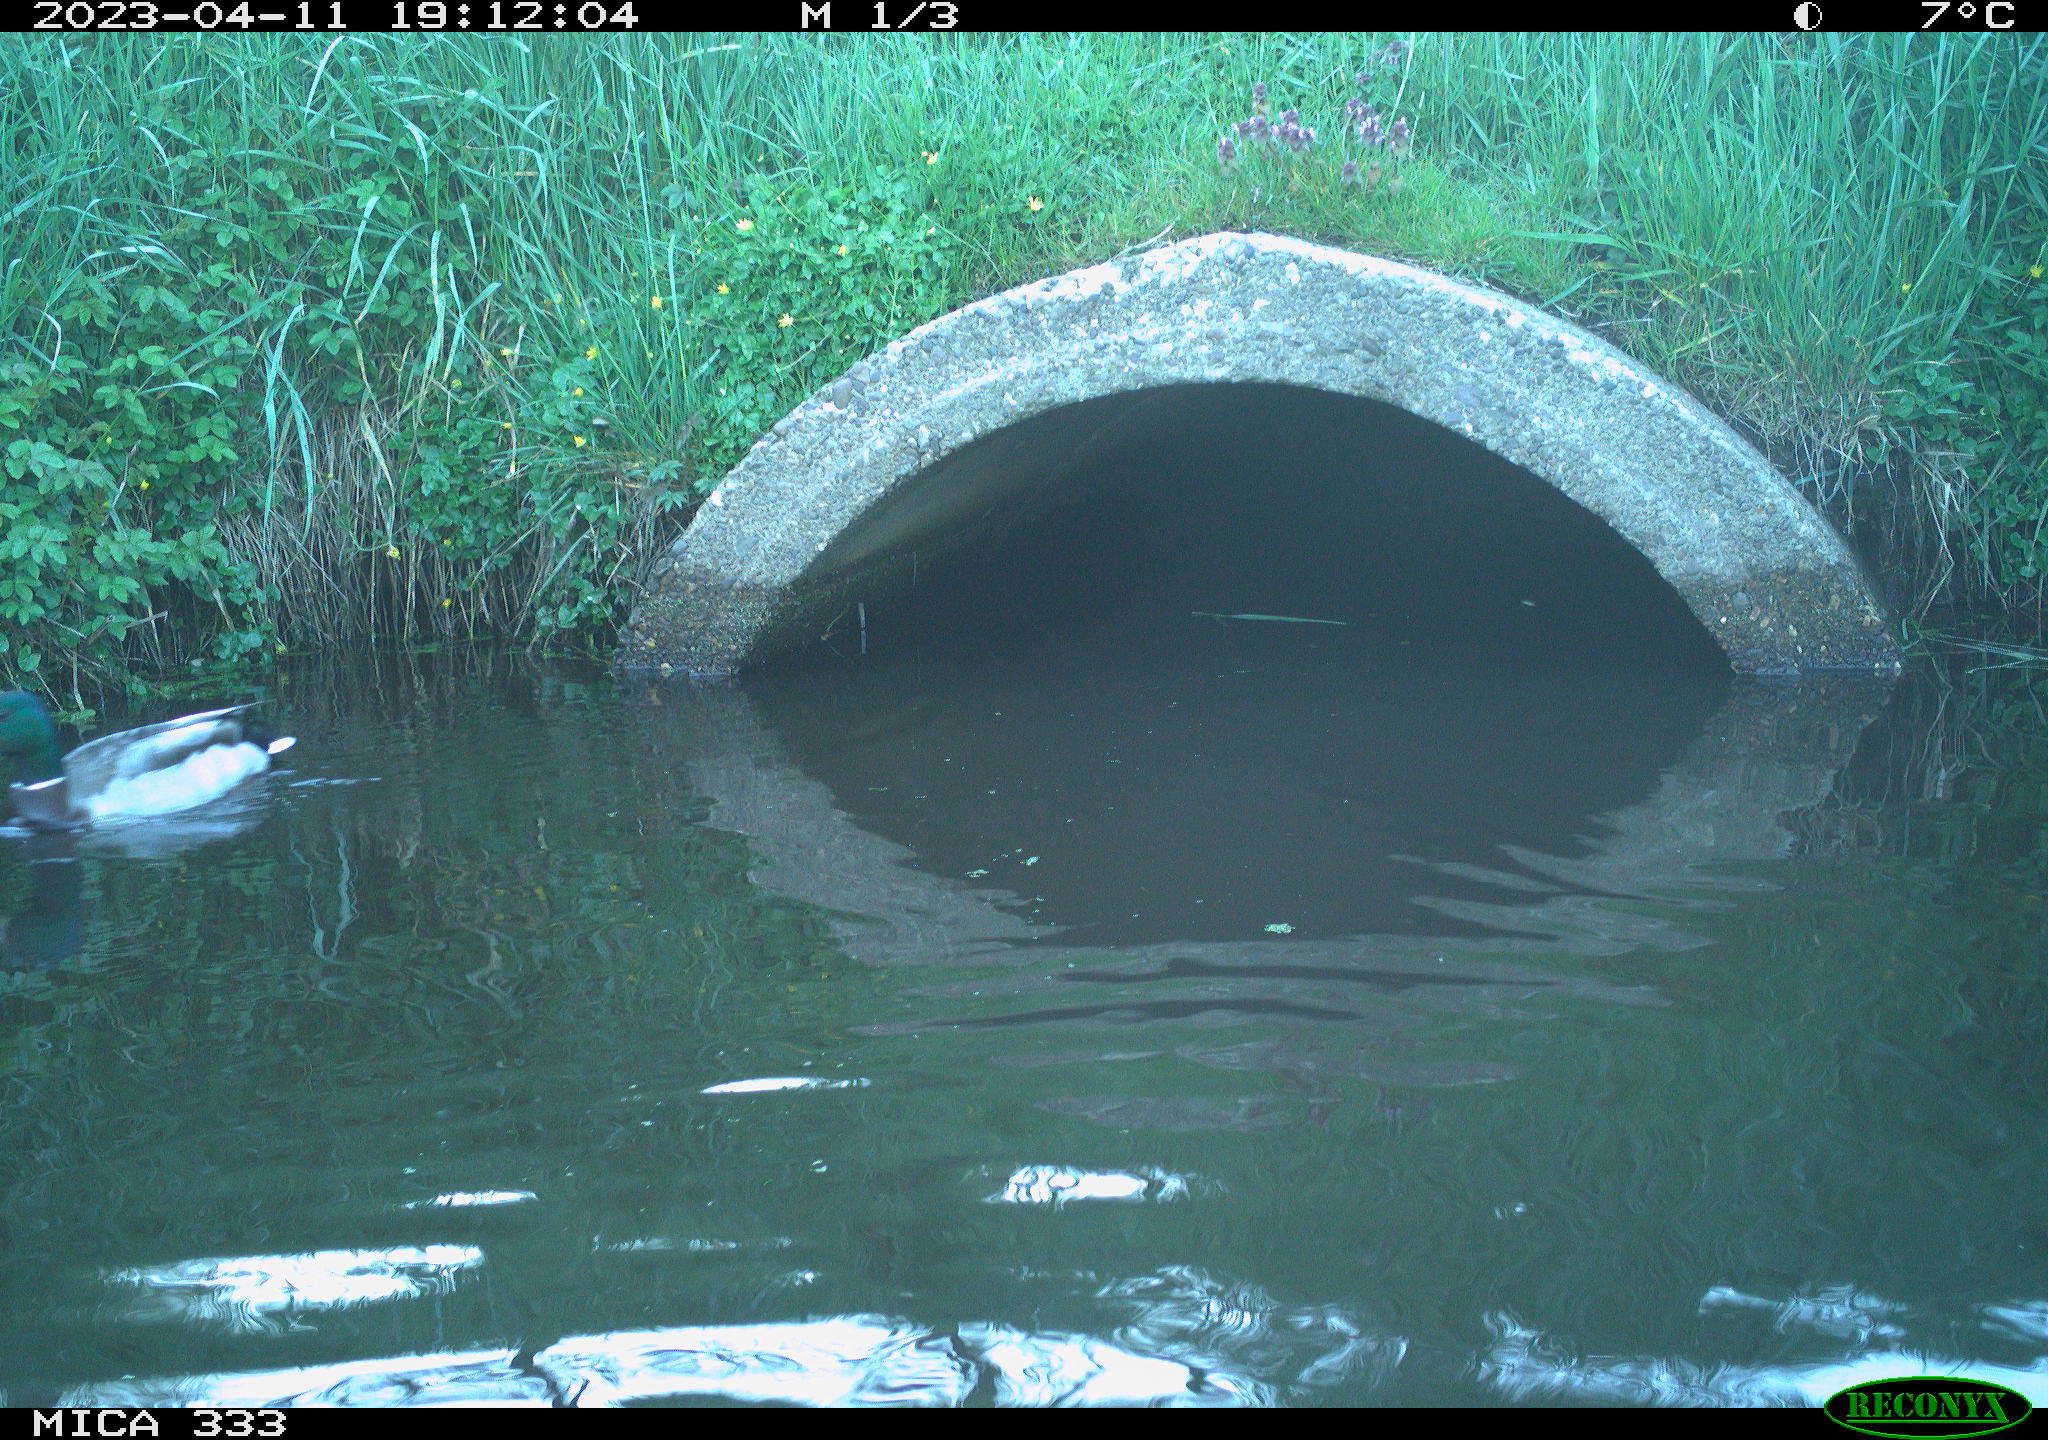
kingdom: Animalia
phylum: Chordata
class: Aves
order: Anseriformes
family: Anatidae
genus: Anas
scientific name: Anas
